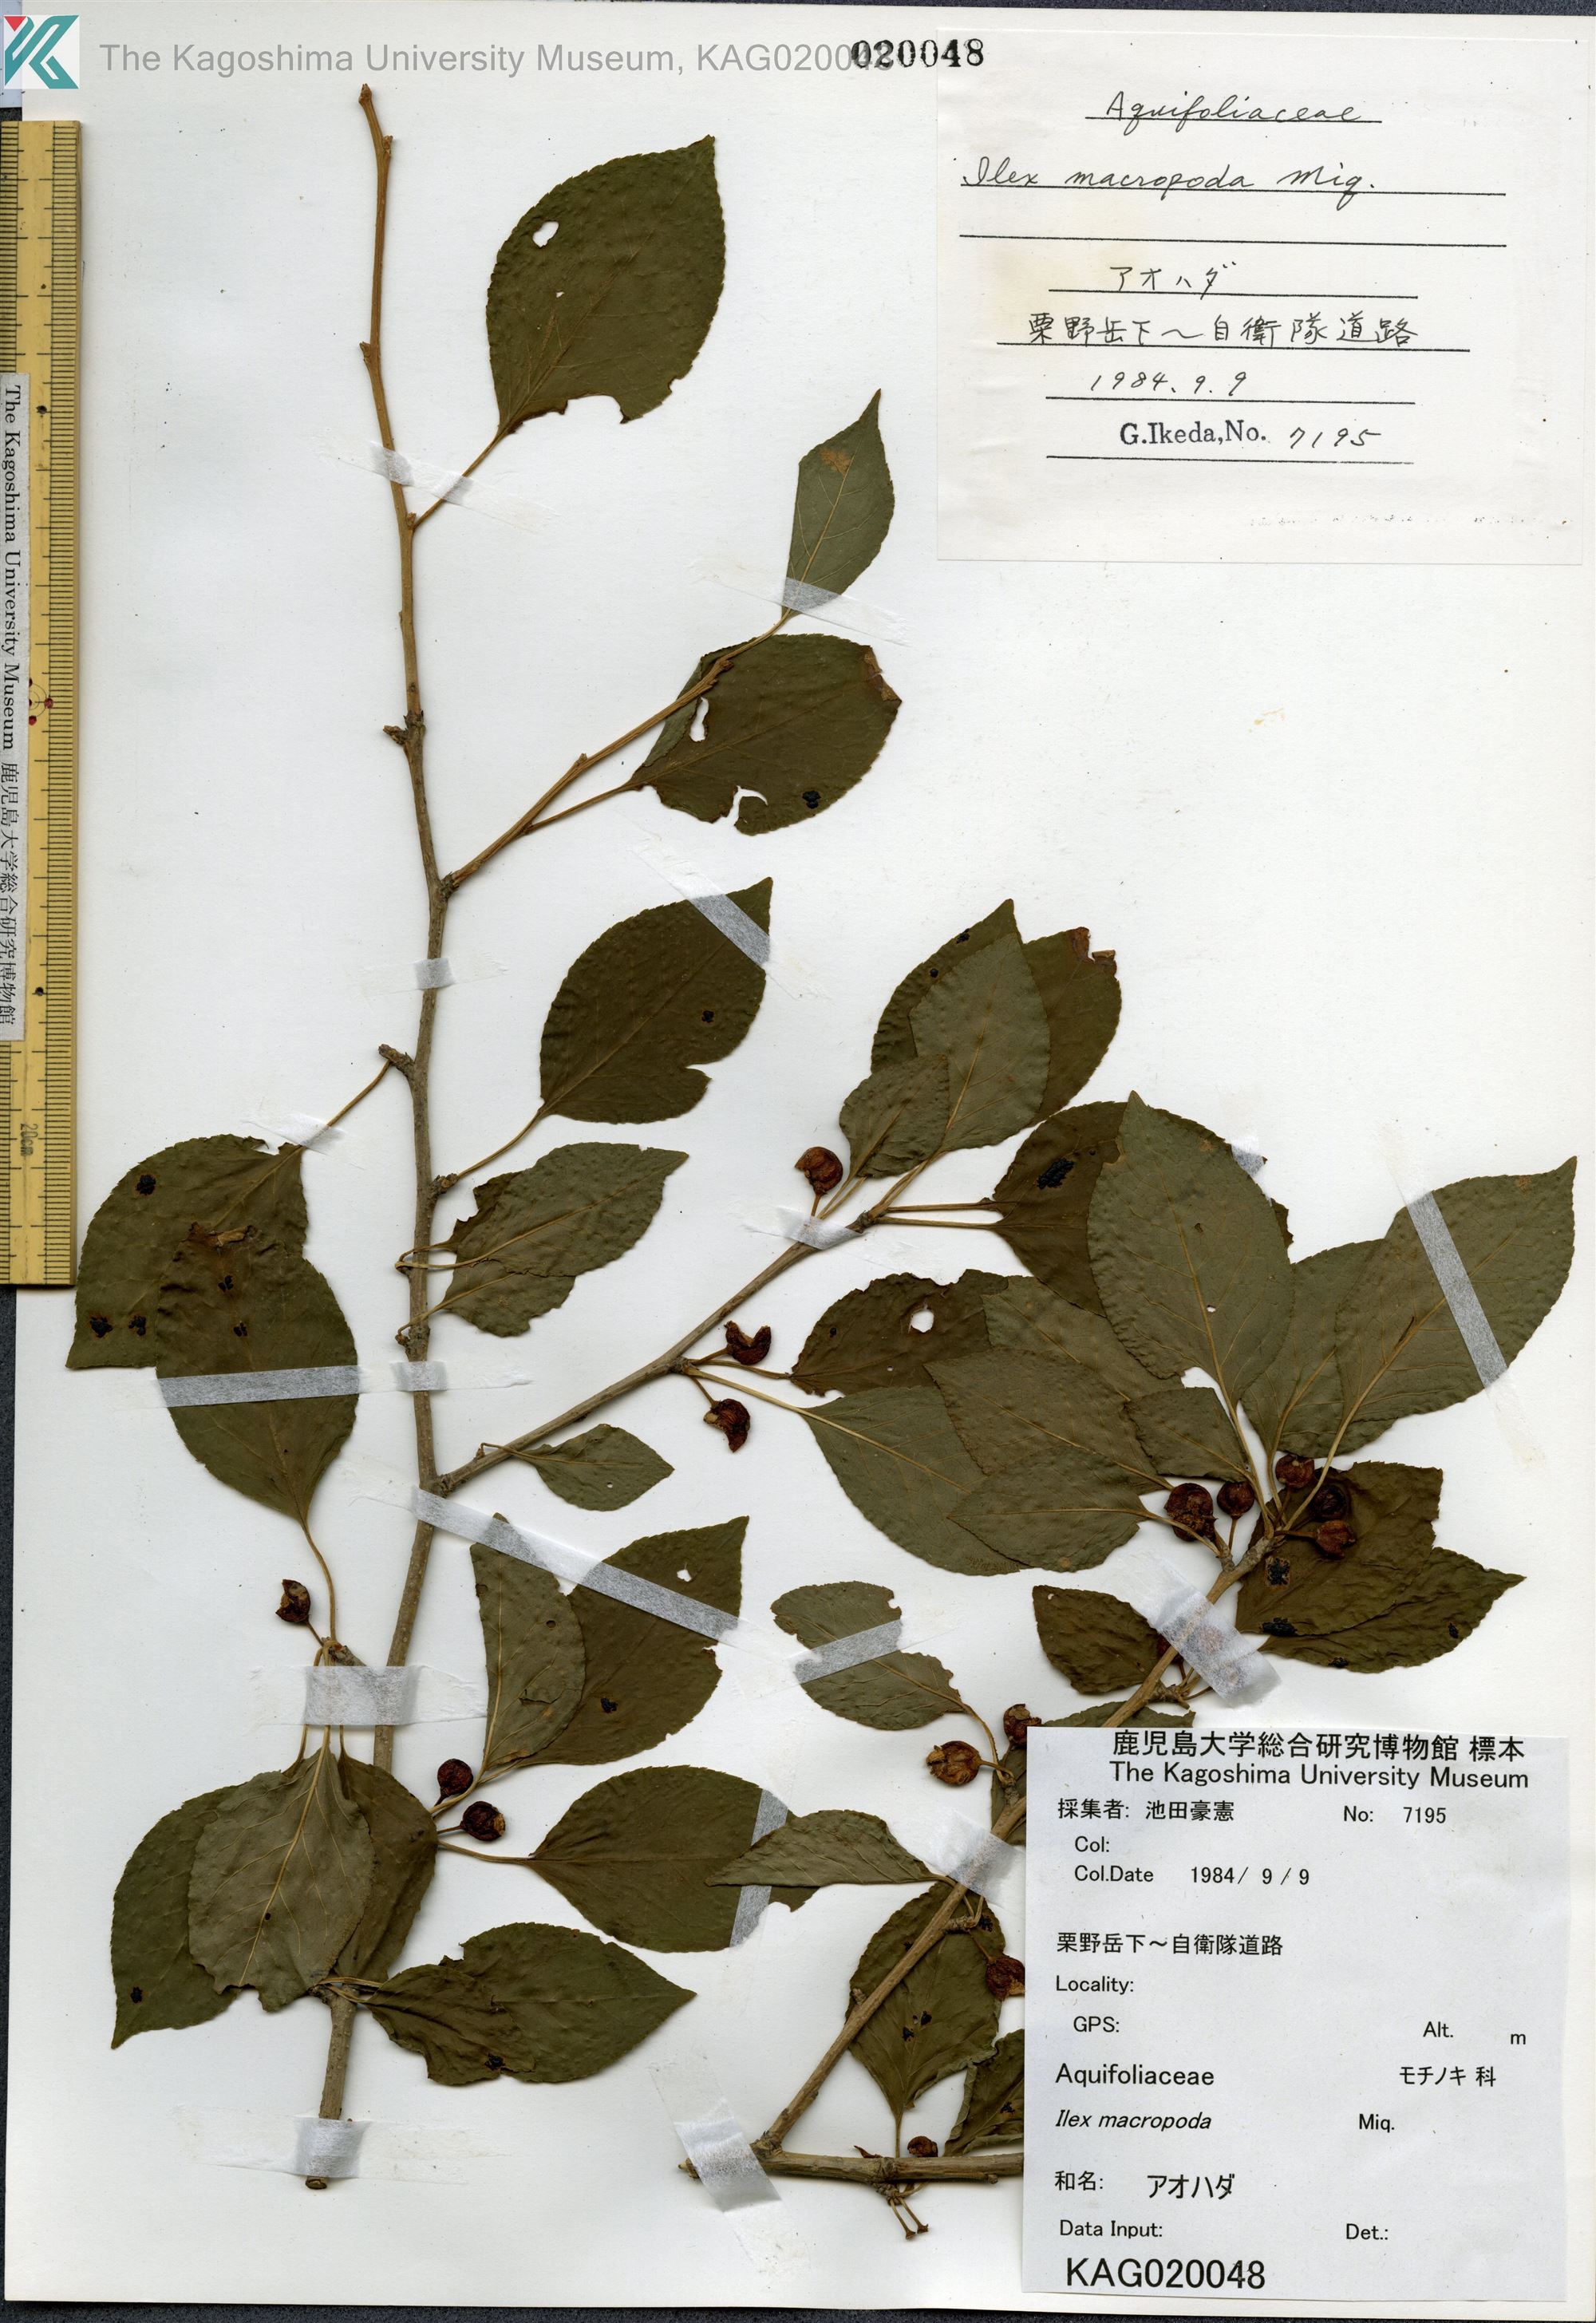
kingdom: Plantae
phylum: Tracheophyta
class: Magnoliopsida
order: Aquifoliales
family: Aquifoliaceae
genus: Ilex
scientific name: Ilex macropoda
